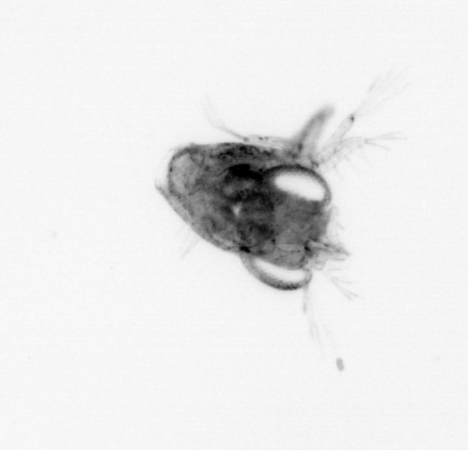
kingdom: Animalia
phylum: Arthropoda
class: Malacostraca
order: Decapoda
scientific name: Decapoda
